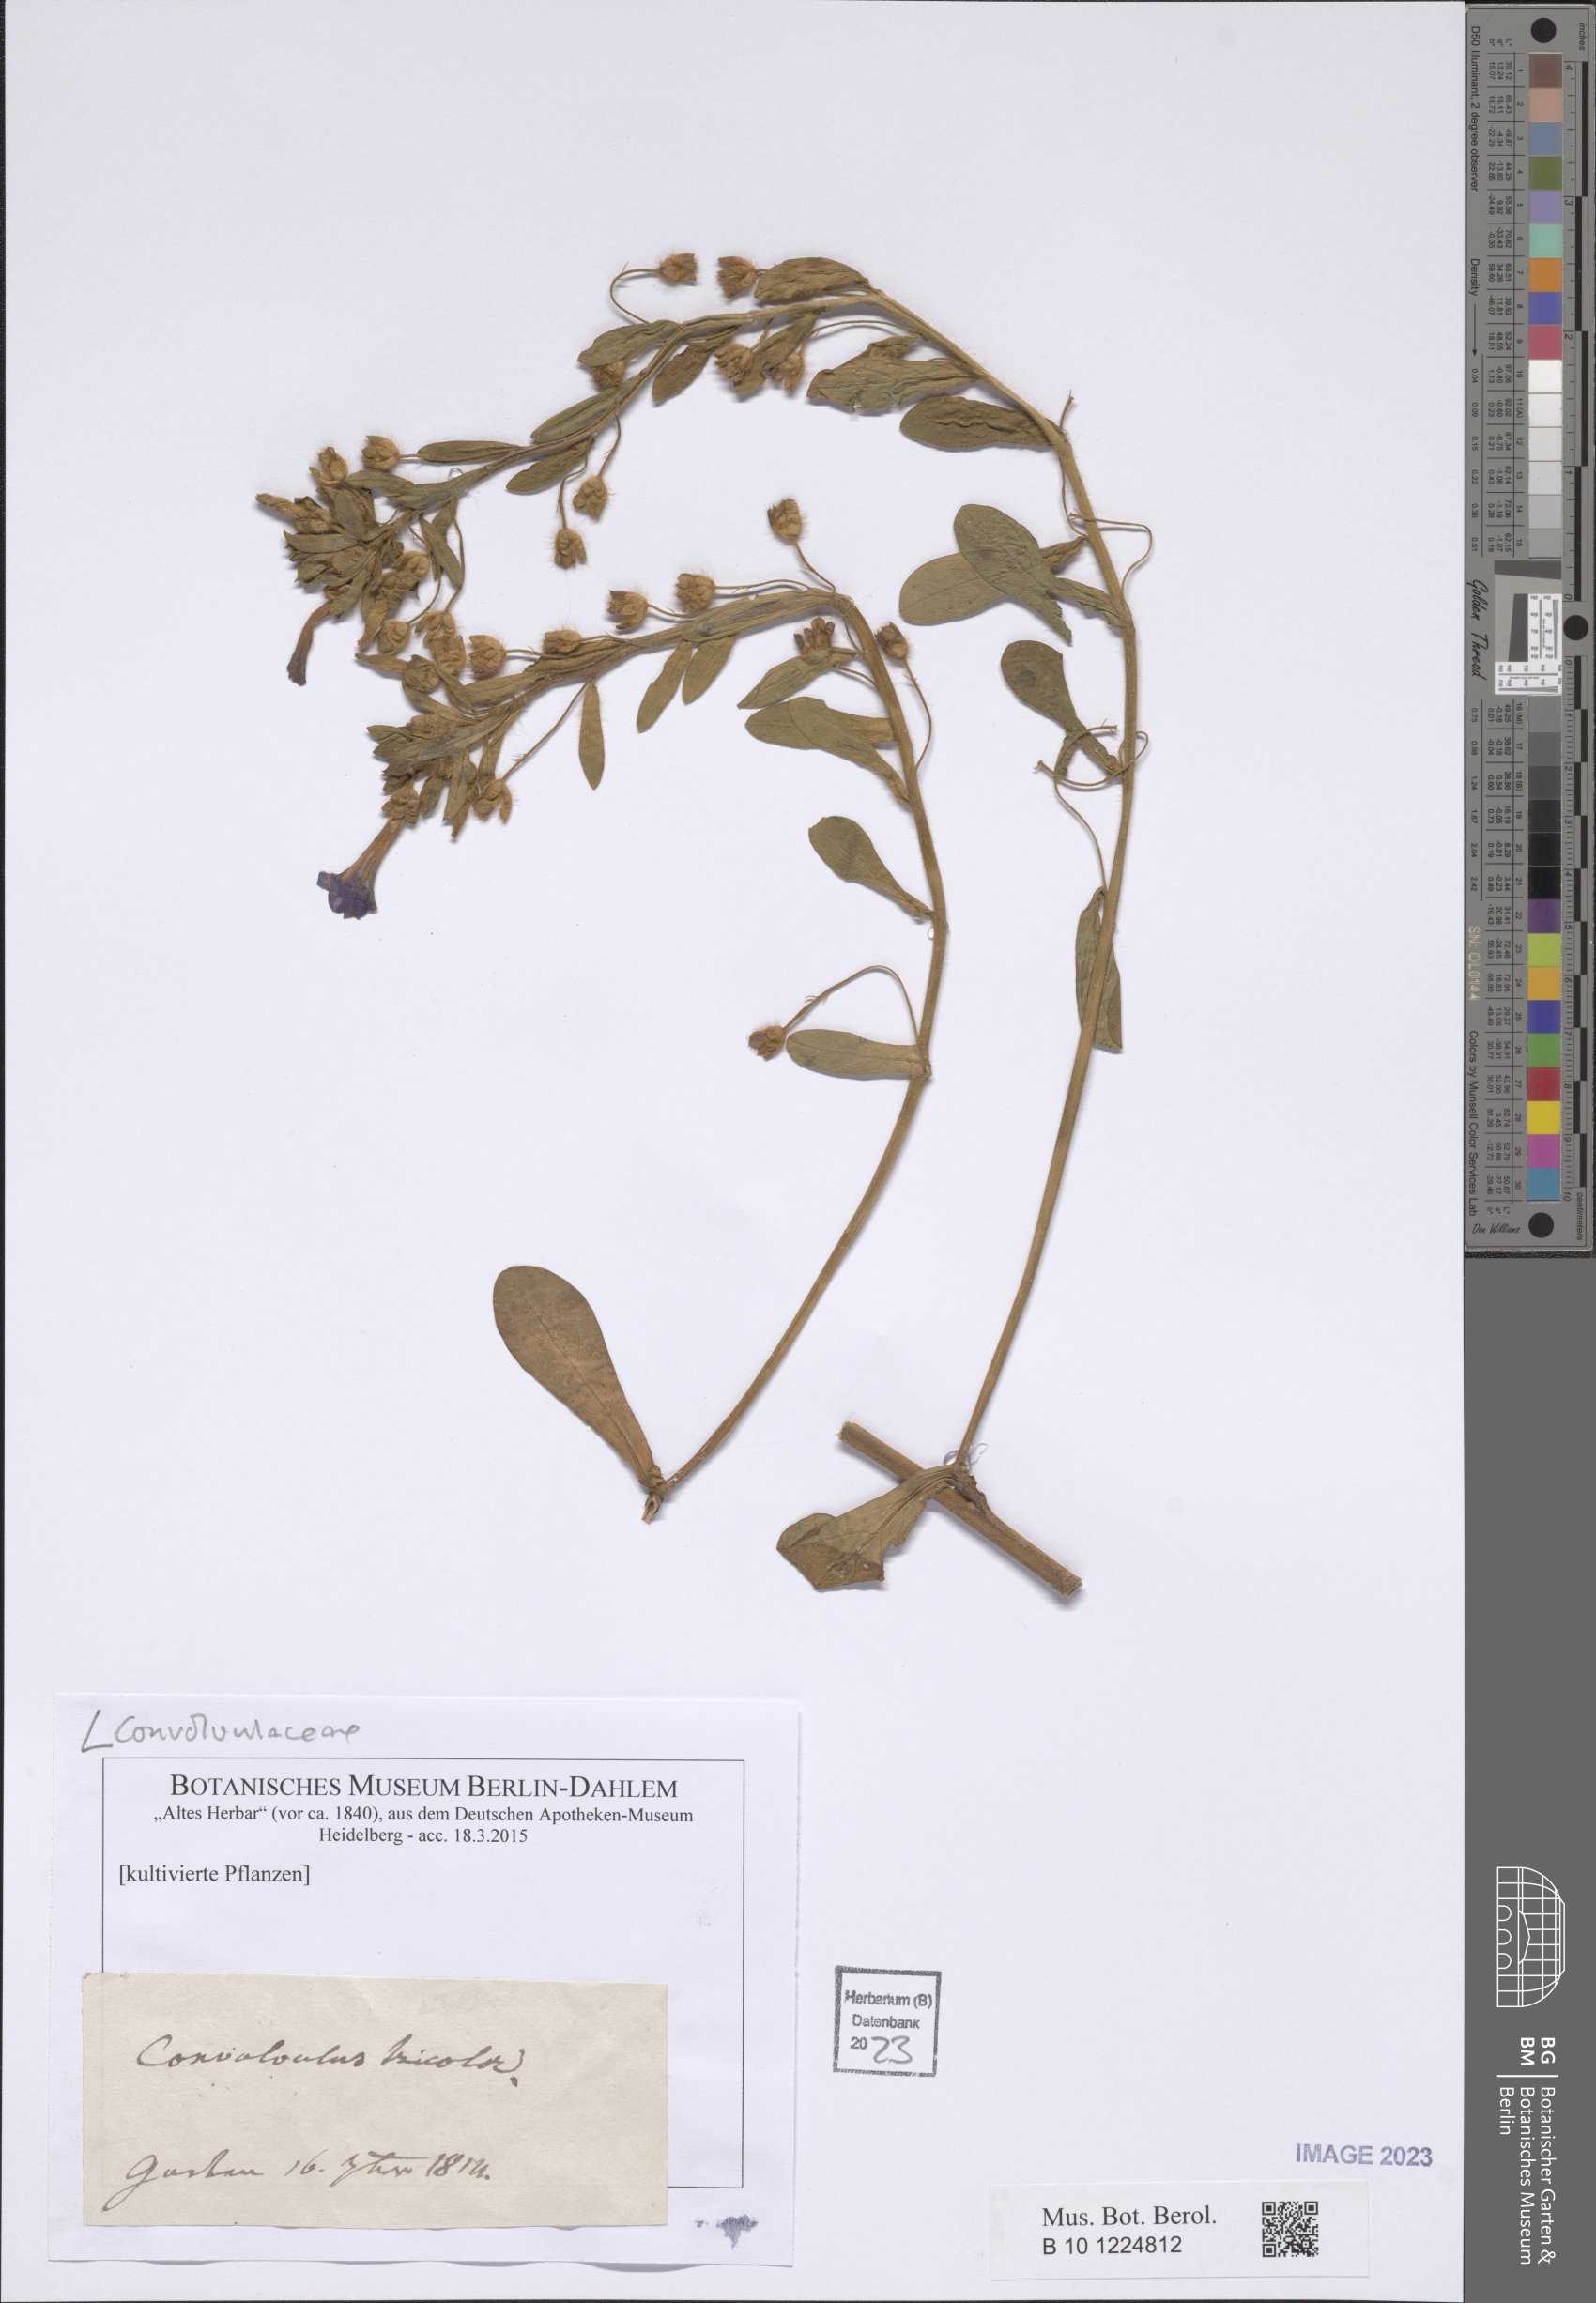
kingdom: Plantae
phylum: Tracheophyta
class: Magnoliopsida
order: Solanales
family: Convolvulaceae
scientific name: Convolvulaceae
